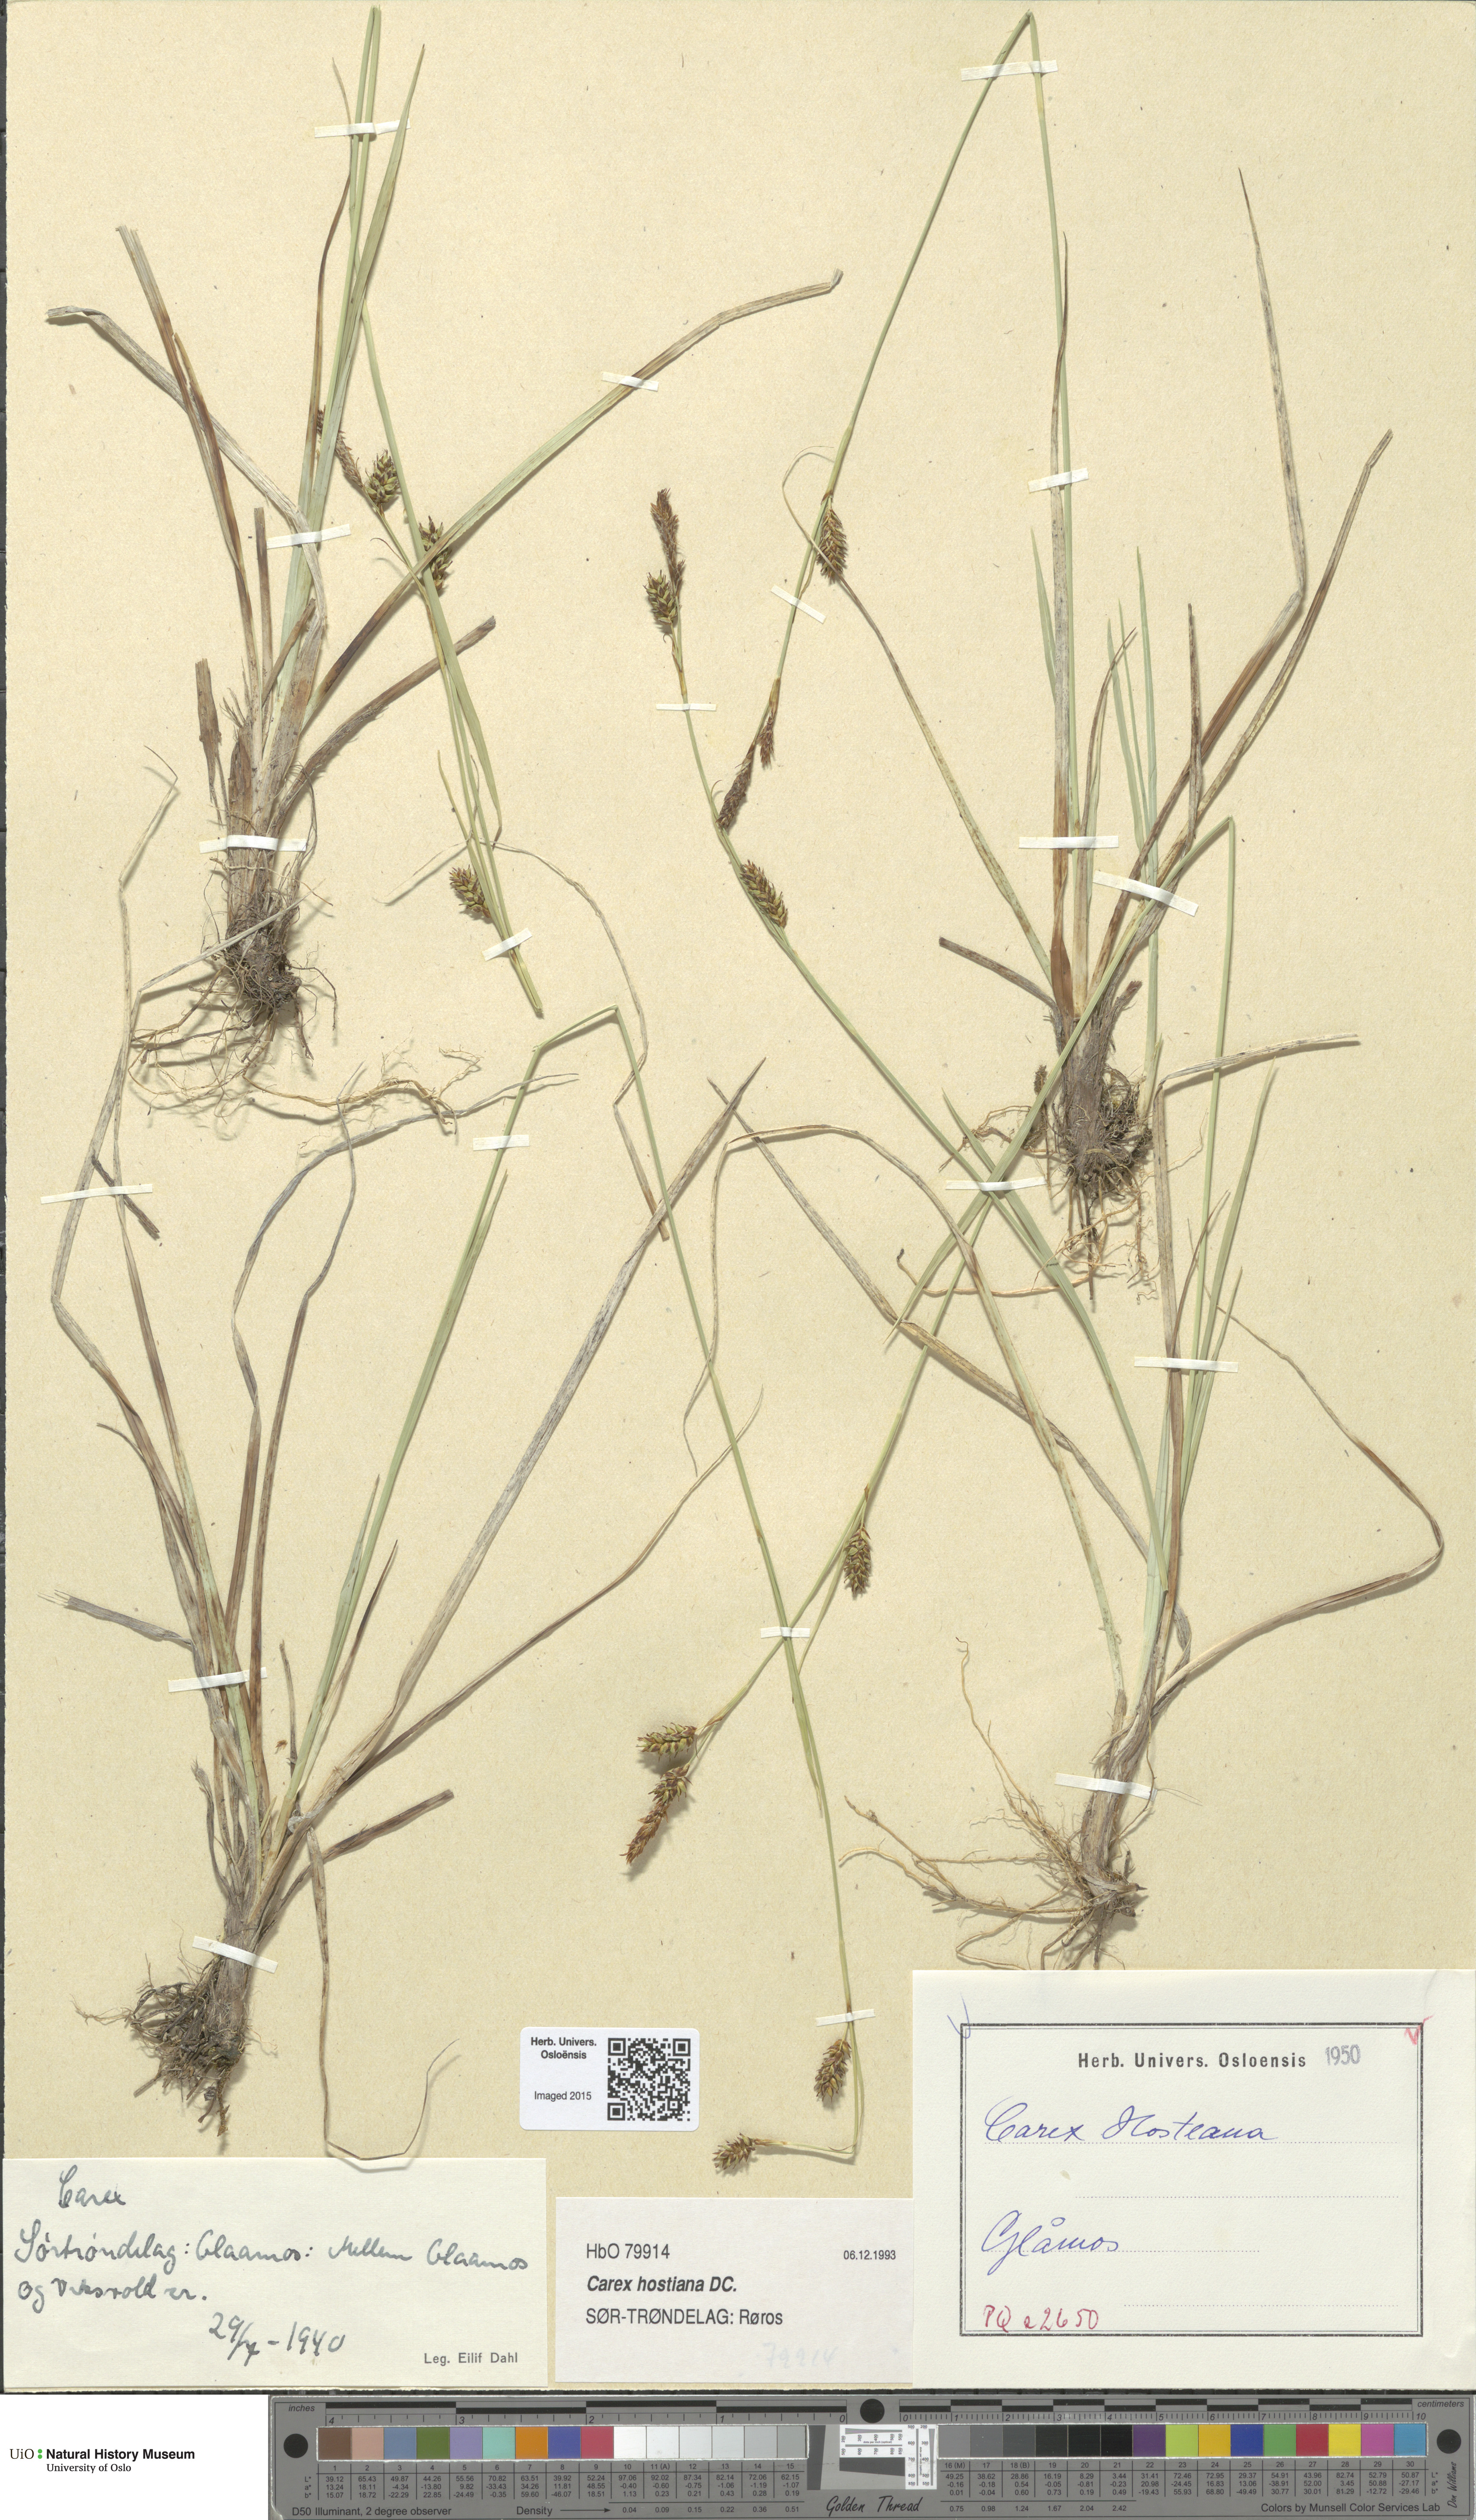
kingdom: Plantae
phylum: Tracheophyta
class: Liliopsida
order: Poales
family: Cyperaceae
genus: Carex
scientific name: Carex hostiana
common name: Tawny sedge
